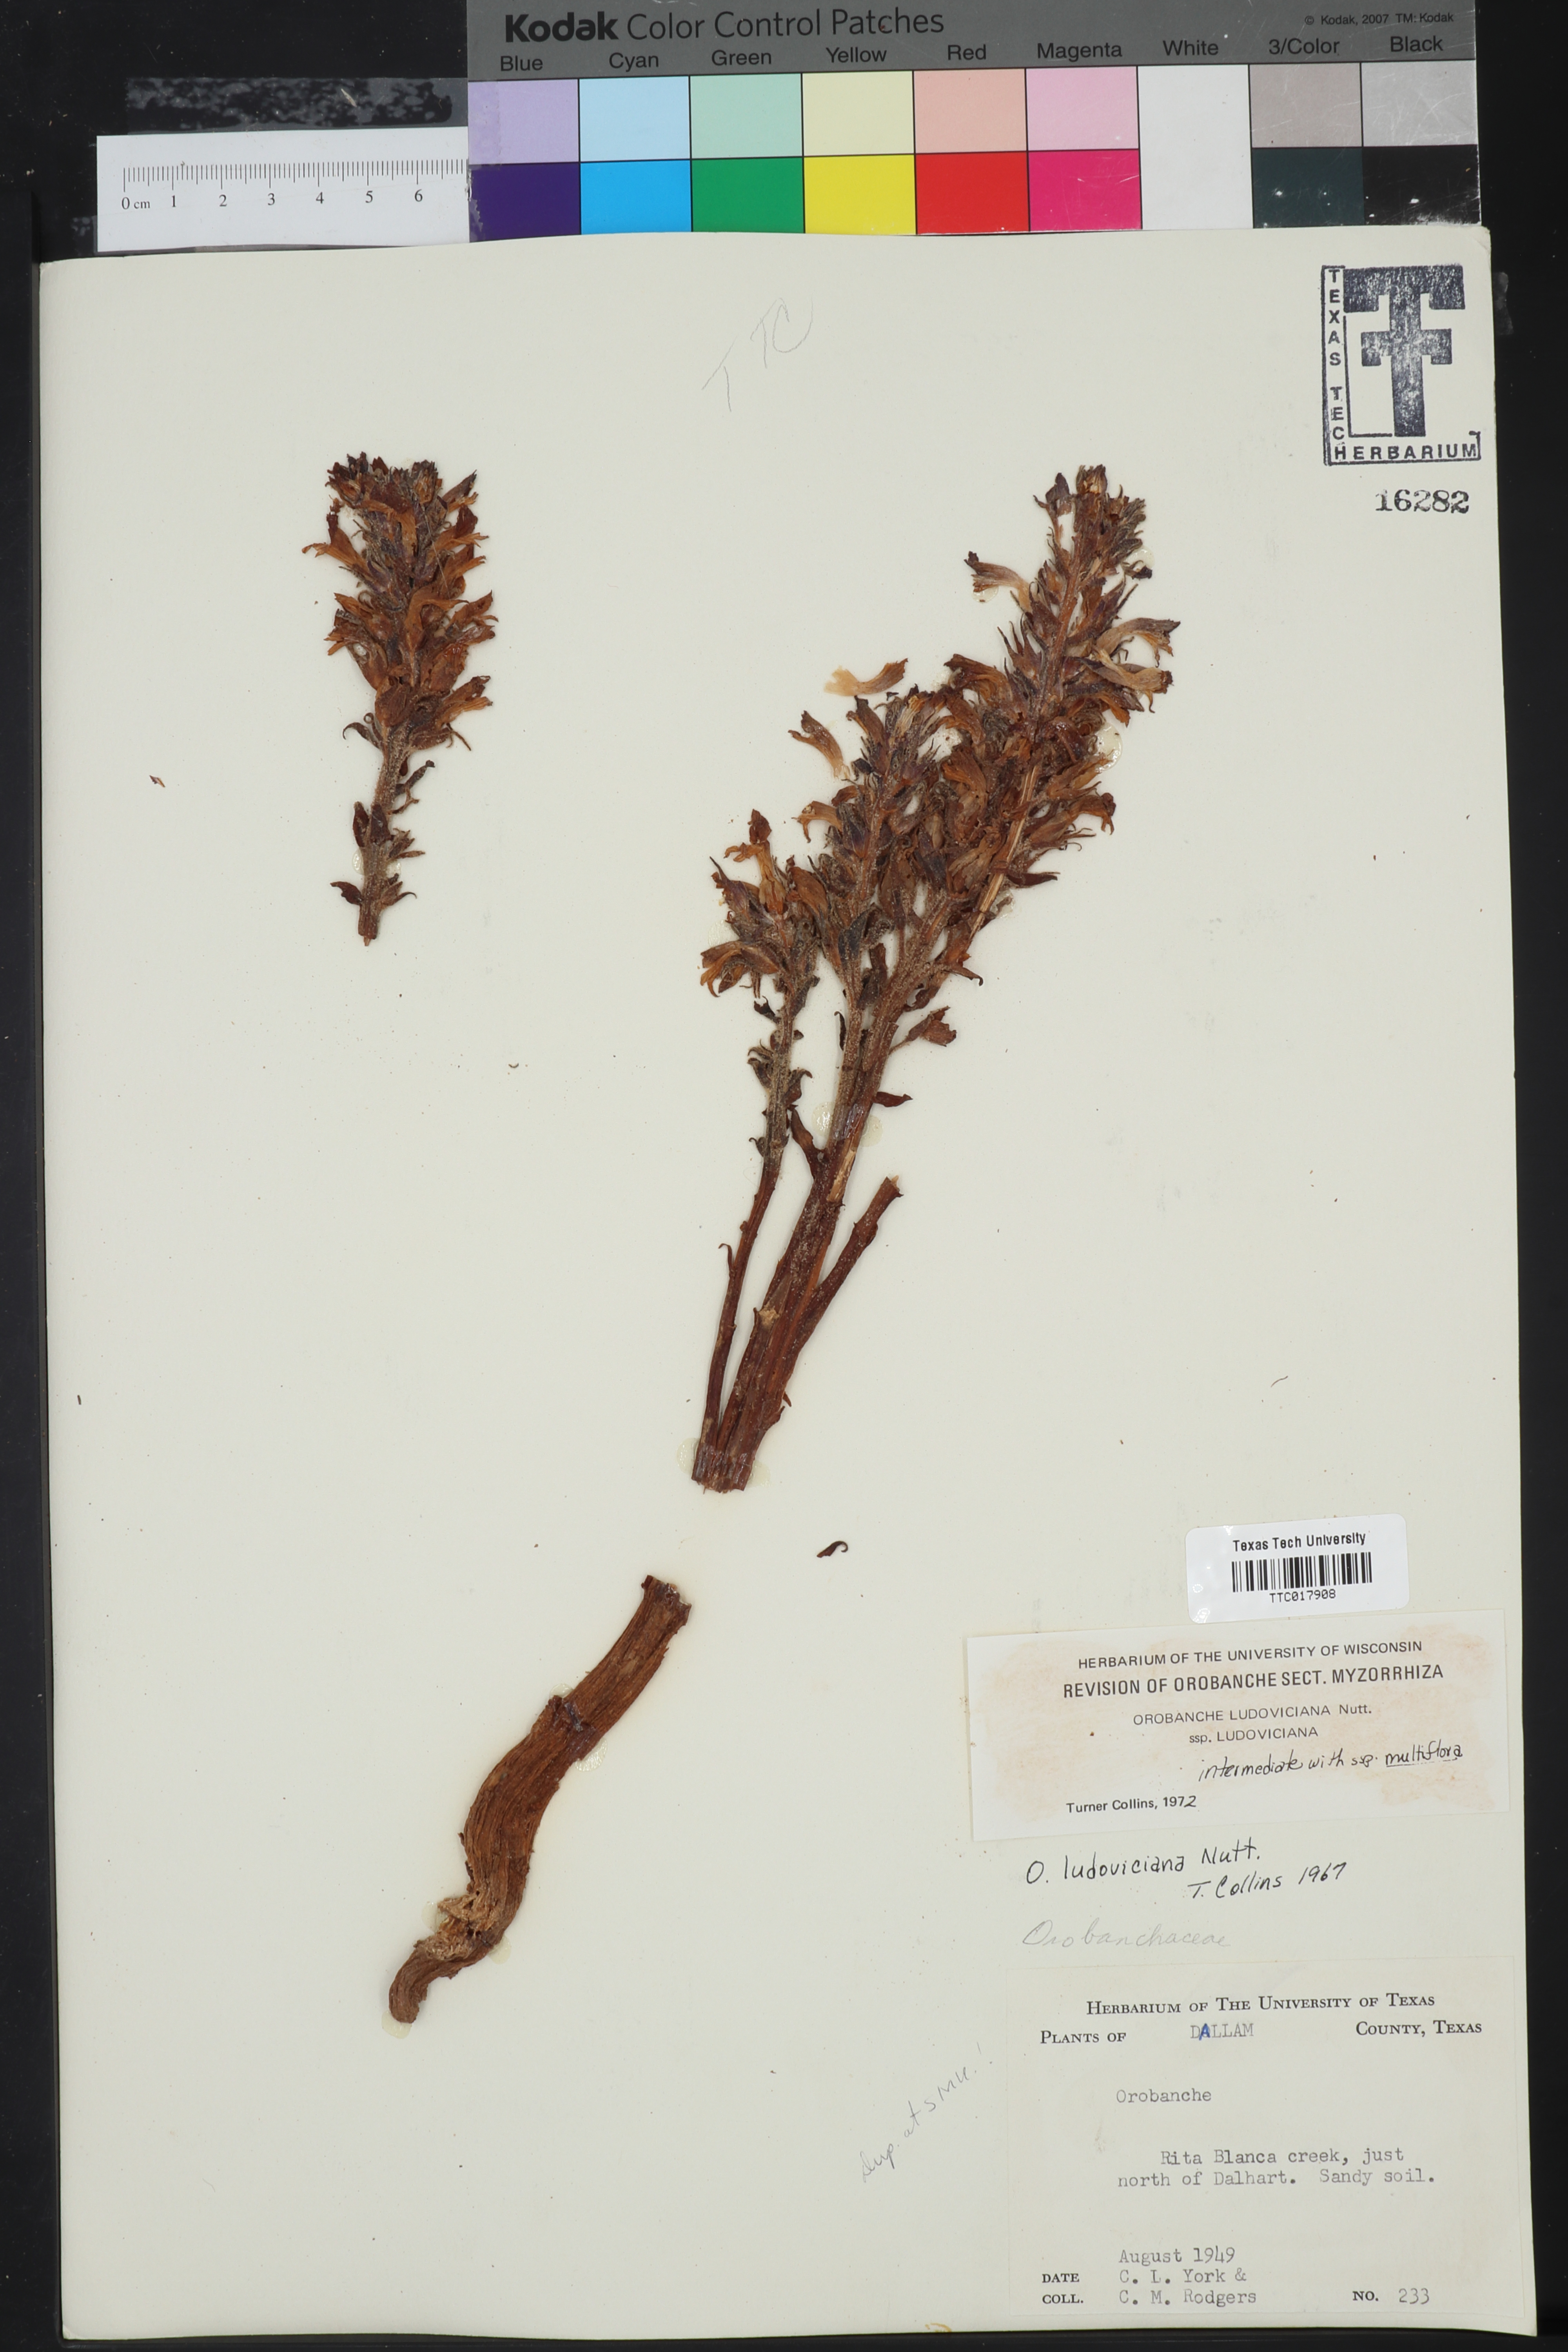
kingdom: Plantae
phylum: Tracheophyta
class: Magnoliopsida
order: Lamiales
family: Orobanchaceae
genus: Aphyllon
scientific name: Aphyllon ludovicianum
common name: Louisiana broomrape
